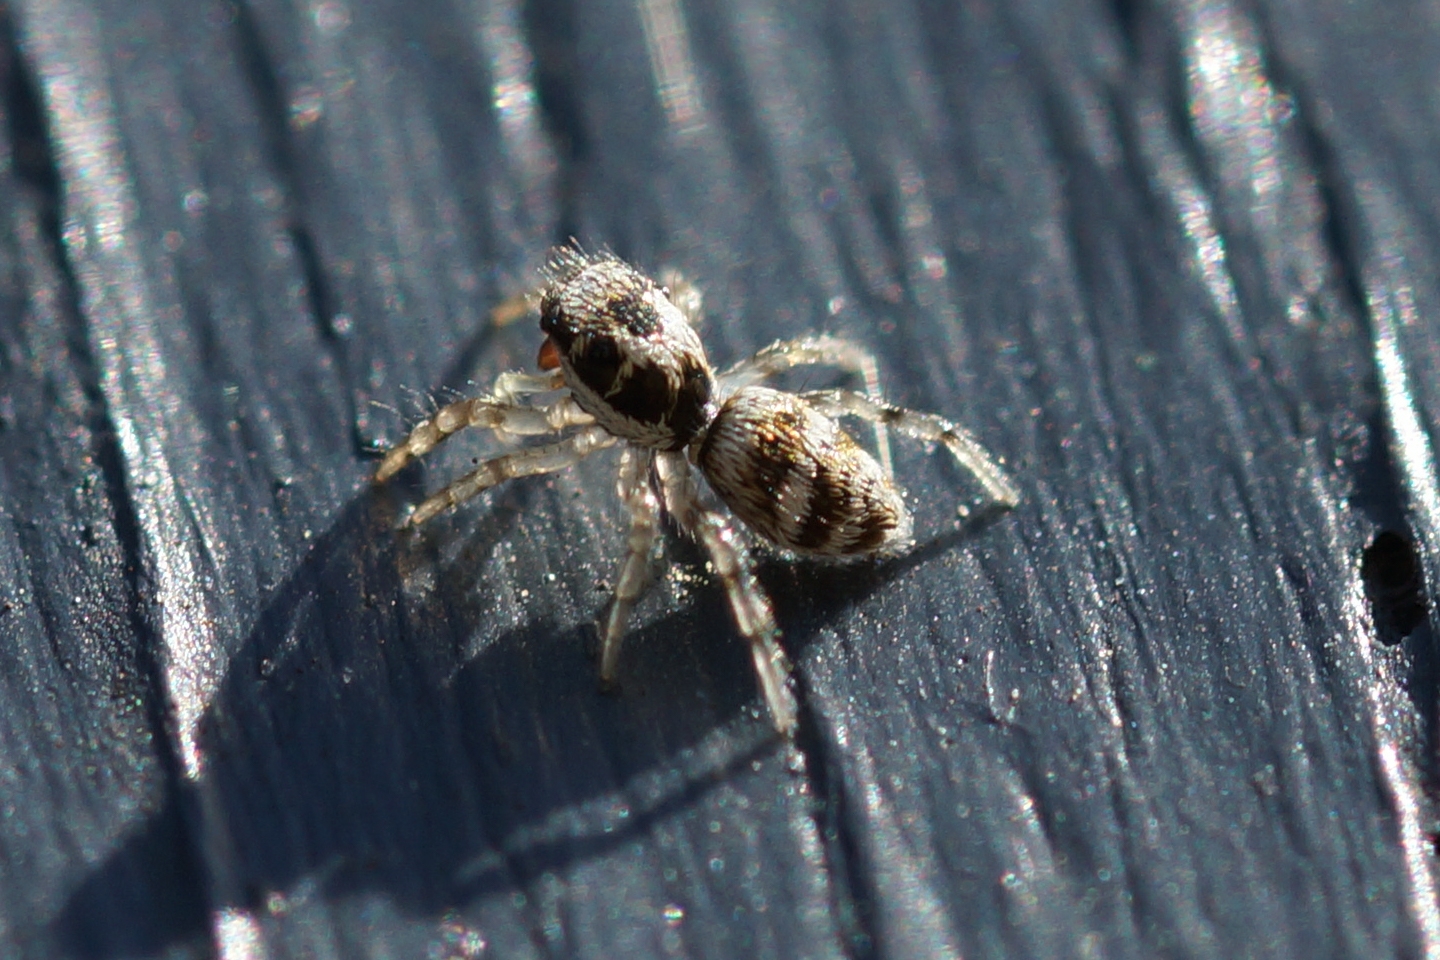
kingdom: Animalia
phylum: Arthropoda
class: Arachnida
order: Araneae
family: Salticidae
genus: Salticus
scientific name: Salticus
